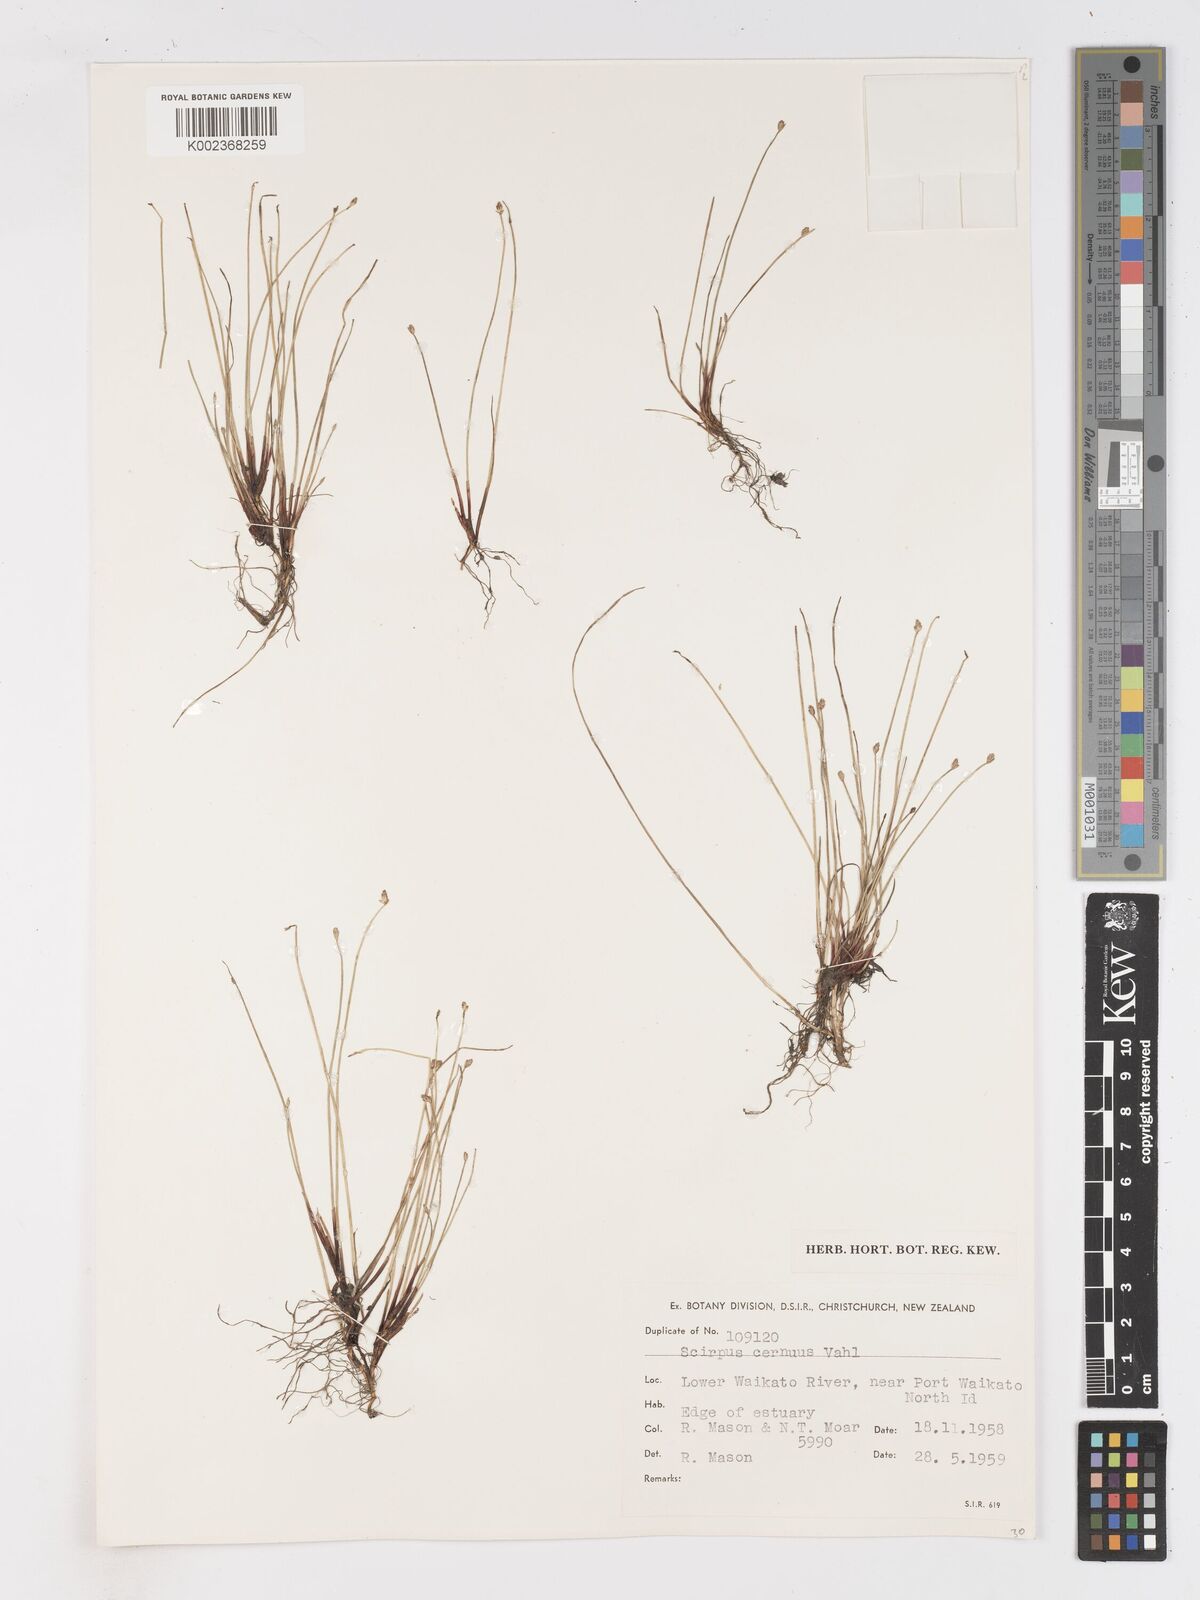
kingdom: Plantae
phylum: Tracheophyta
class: Liliopsida
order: Poales
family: Cyperaceae
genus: Isolepis
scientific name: Isolepis cernua
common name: Slender club-rush
